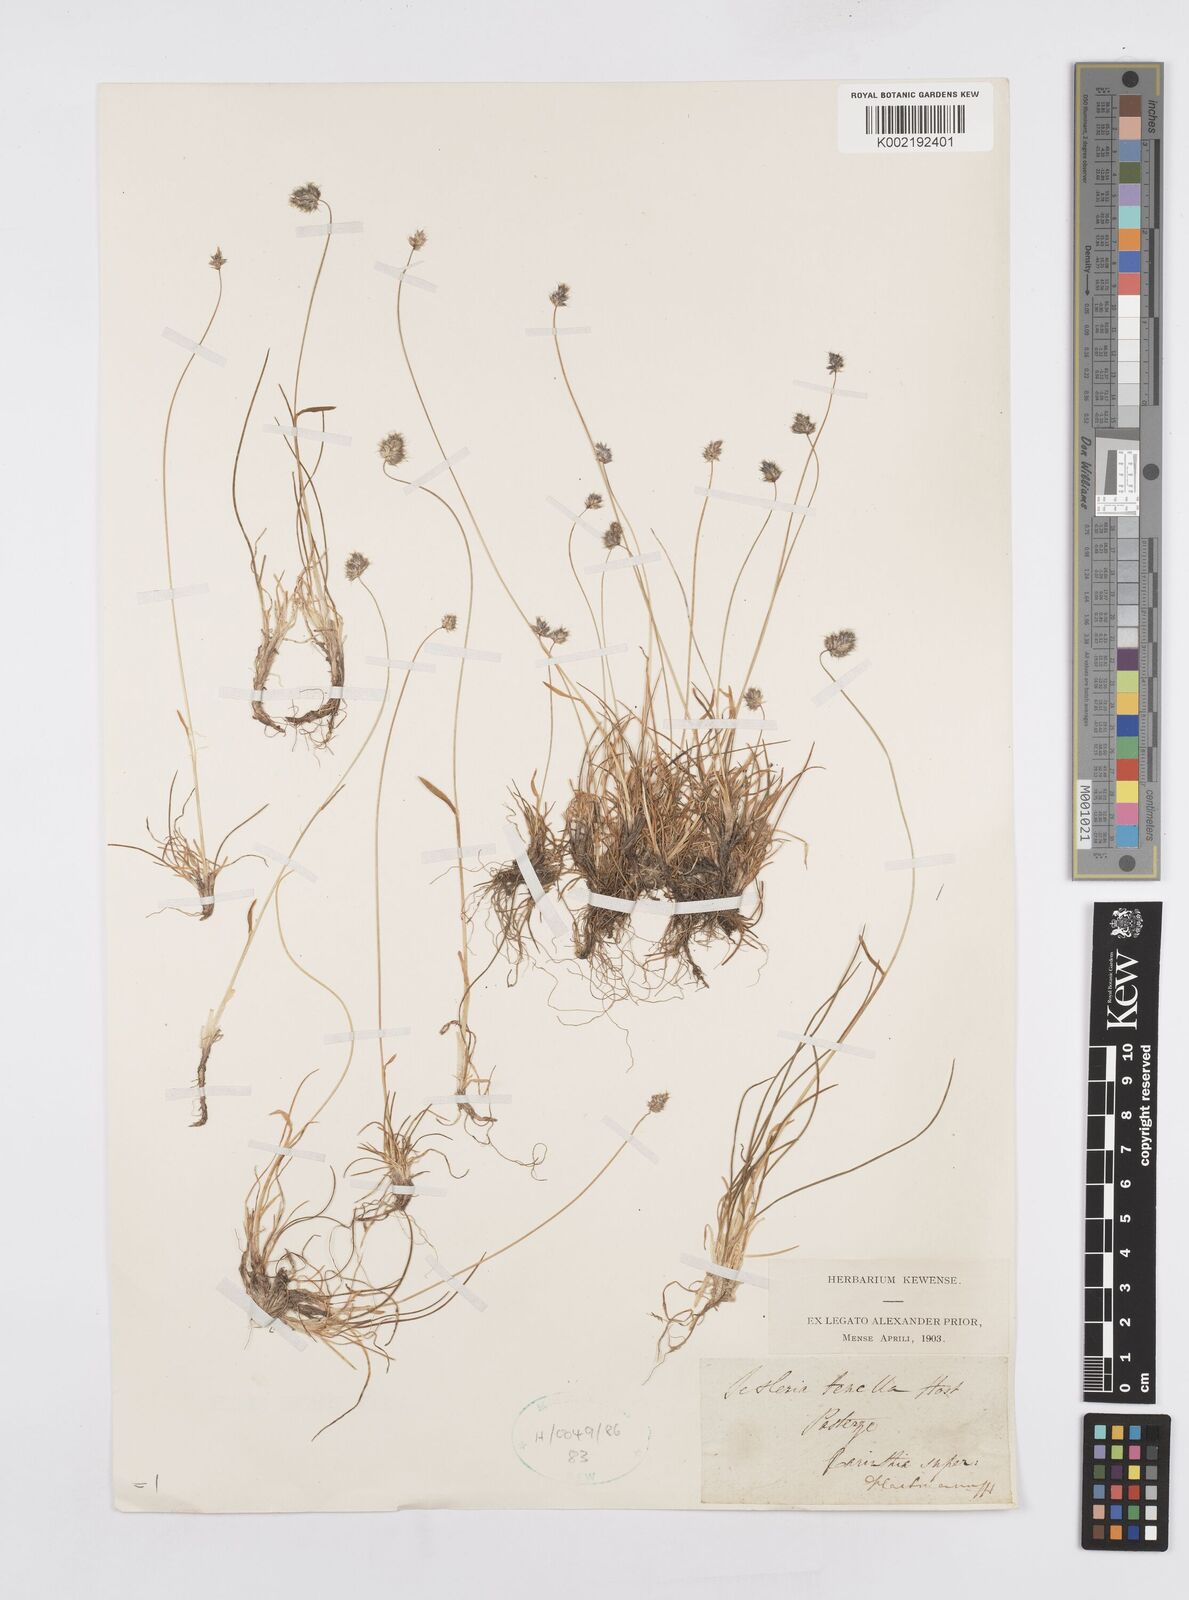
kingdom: Plantae
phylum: Tracheophyta
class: Liliopsida
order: Poales
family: Poaceae
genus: Psilathera
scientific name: Psilathera ovata
